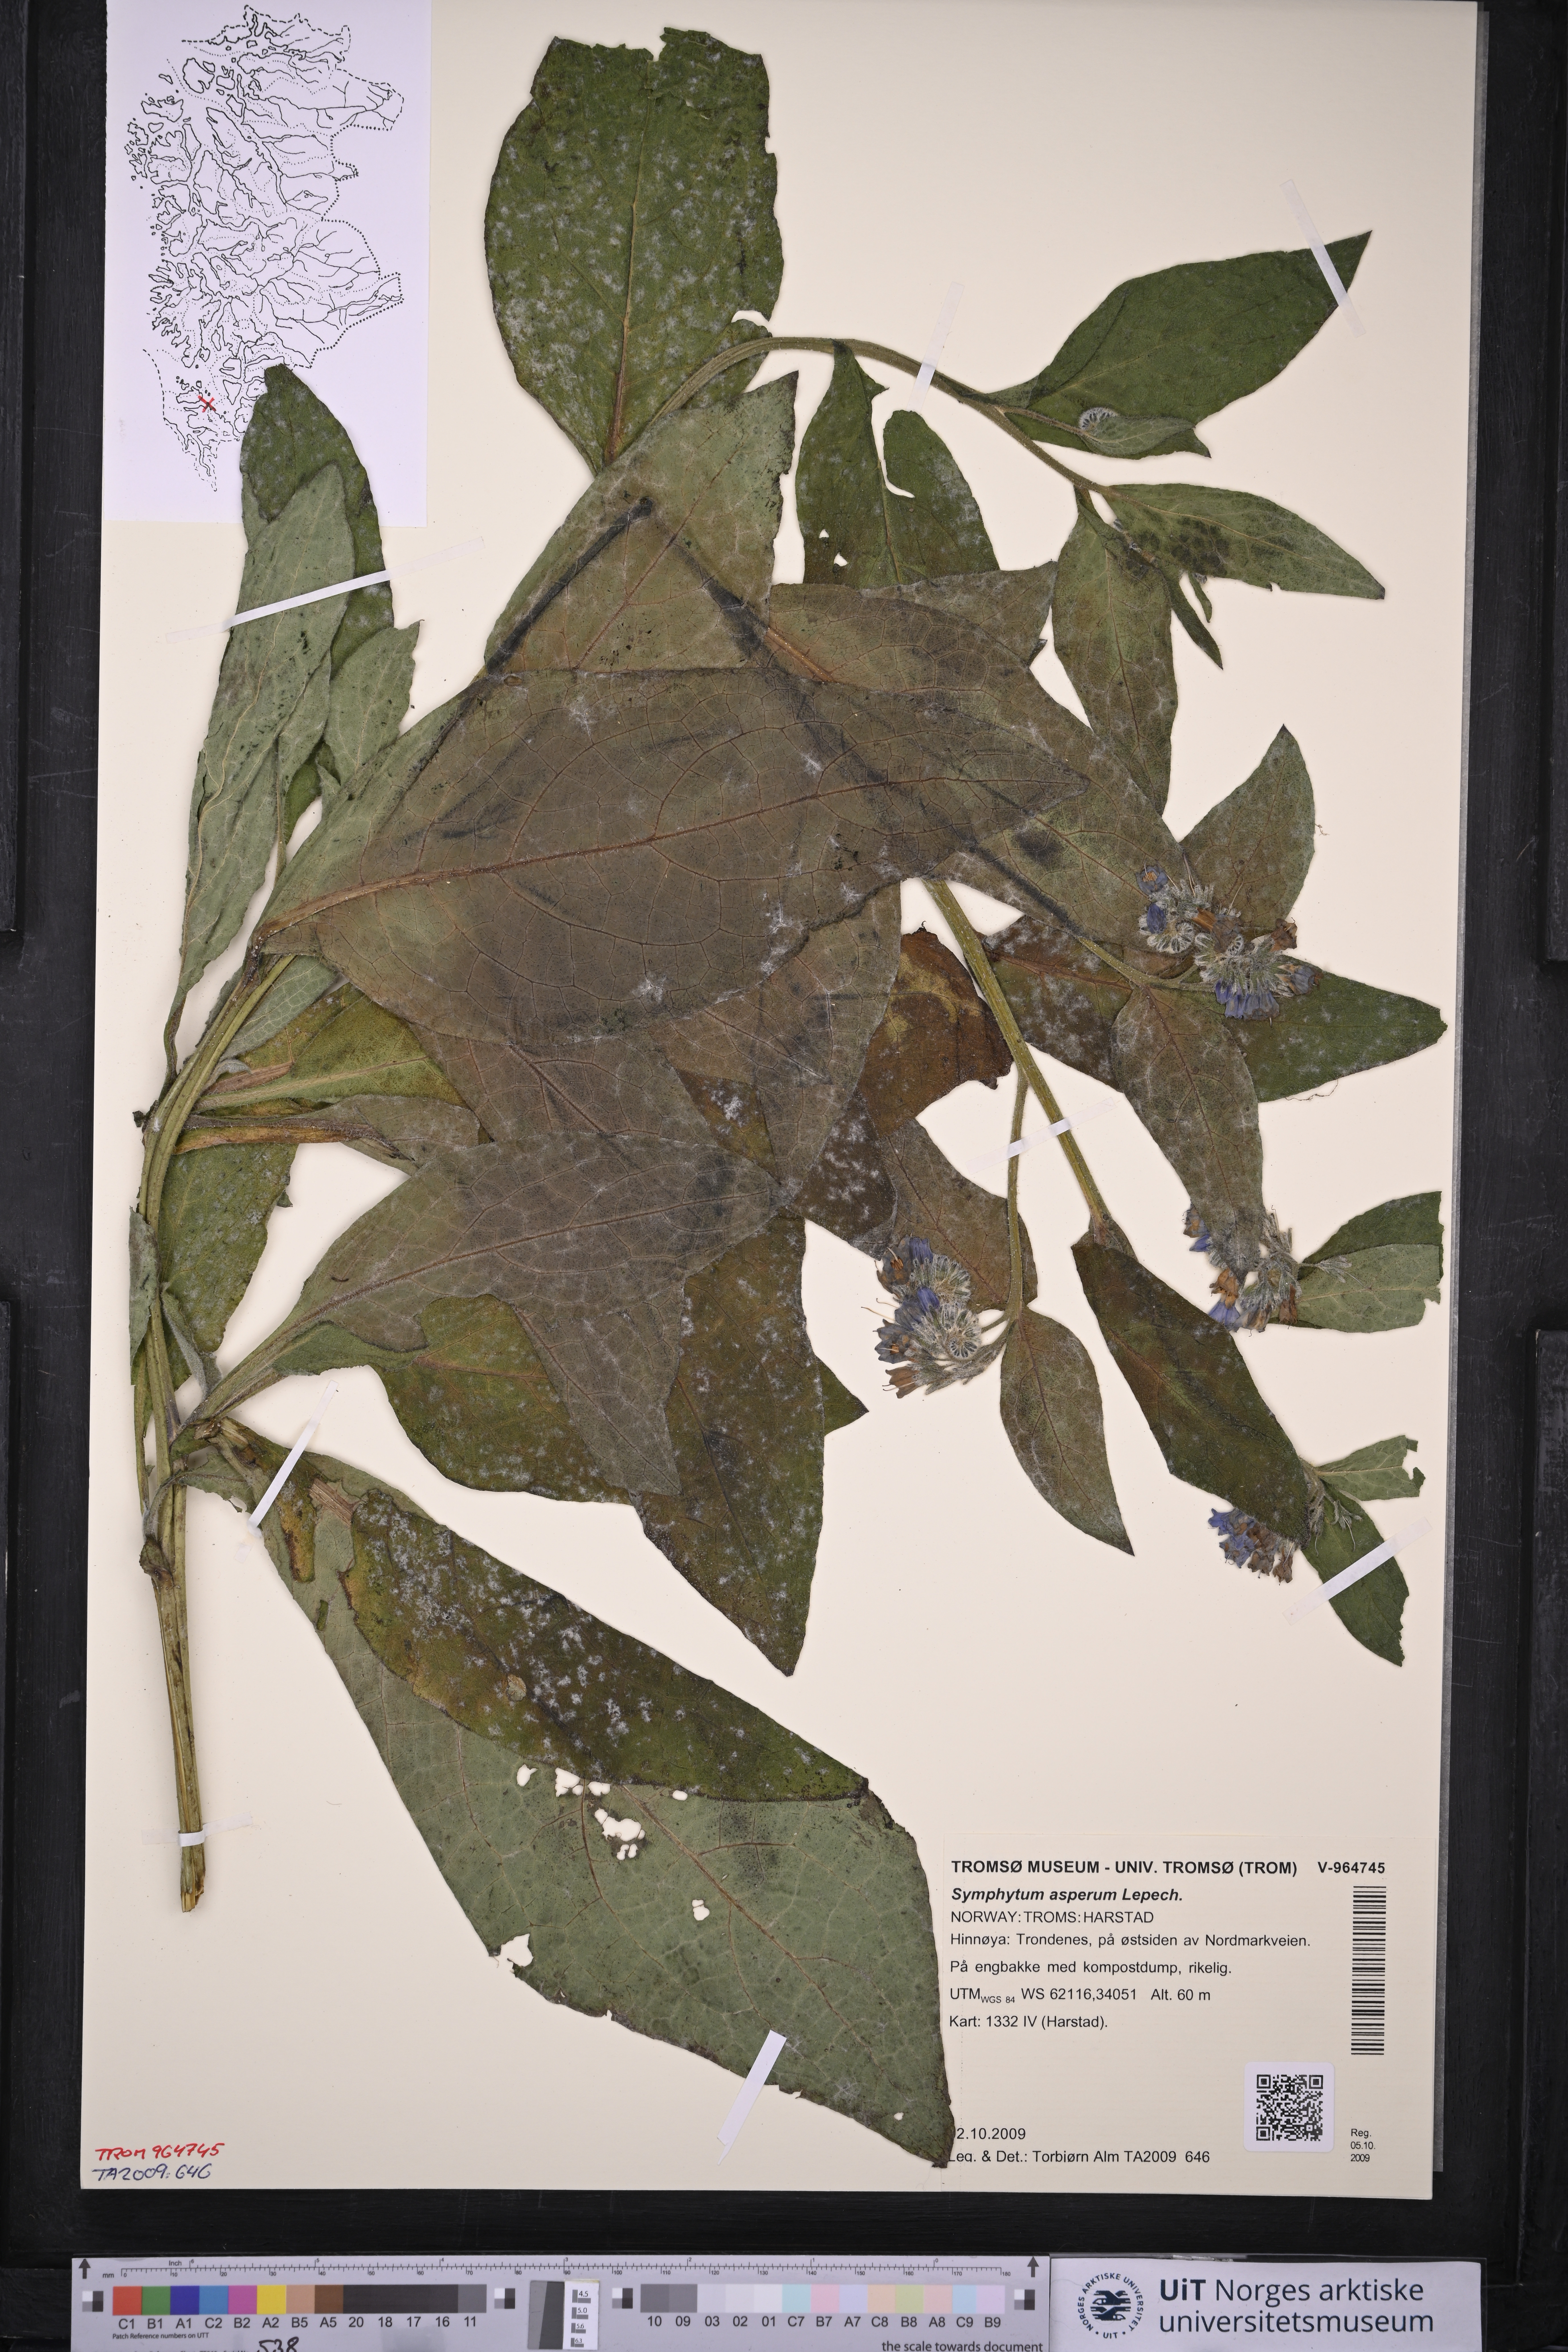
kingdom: Plantae
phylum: Tracheophyta
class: Magnoliopsida
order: Boraginales
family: Boraginaceae
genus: Symphytum
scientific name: Symphytum asperum
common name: Prickly comfrey
